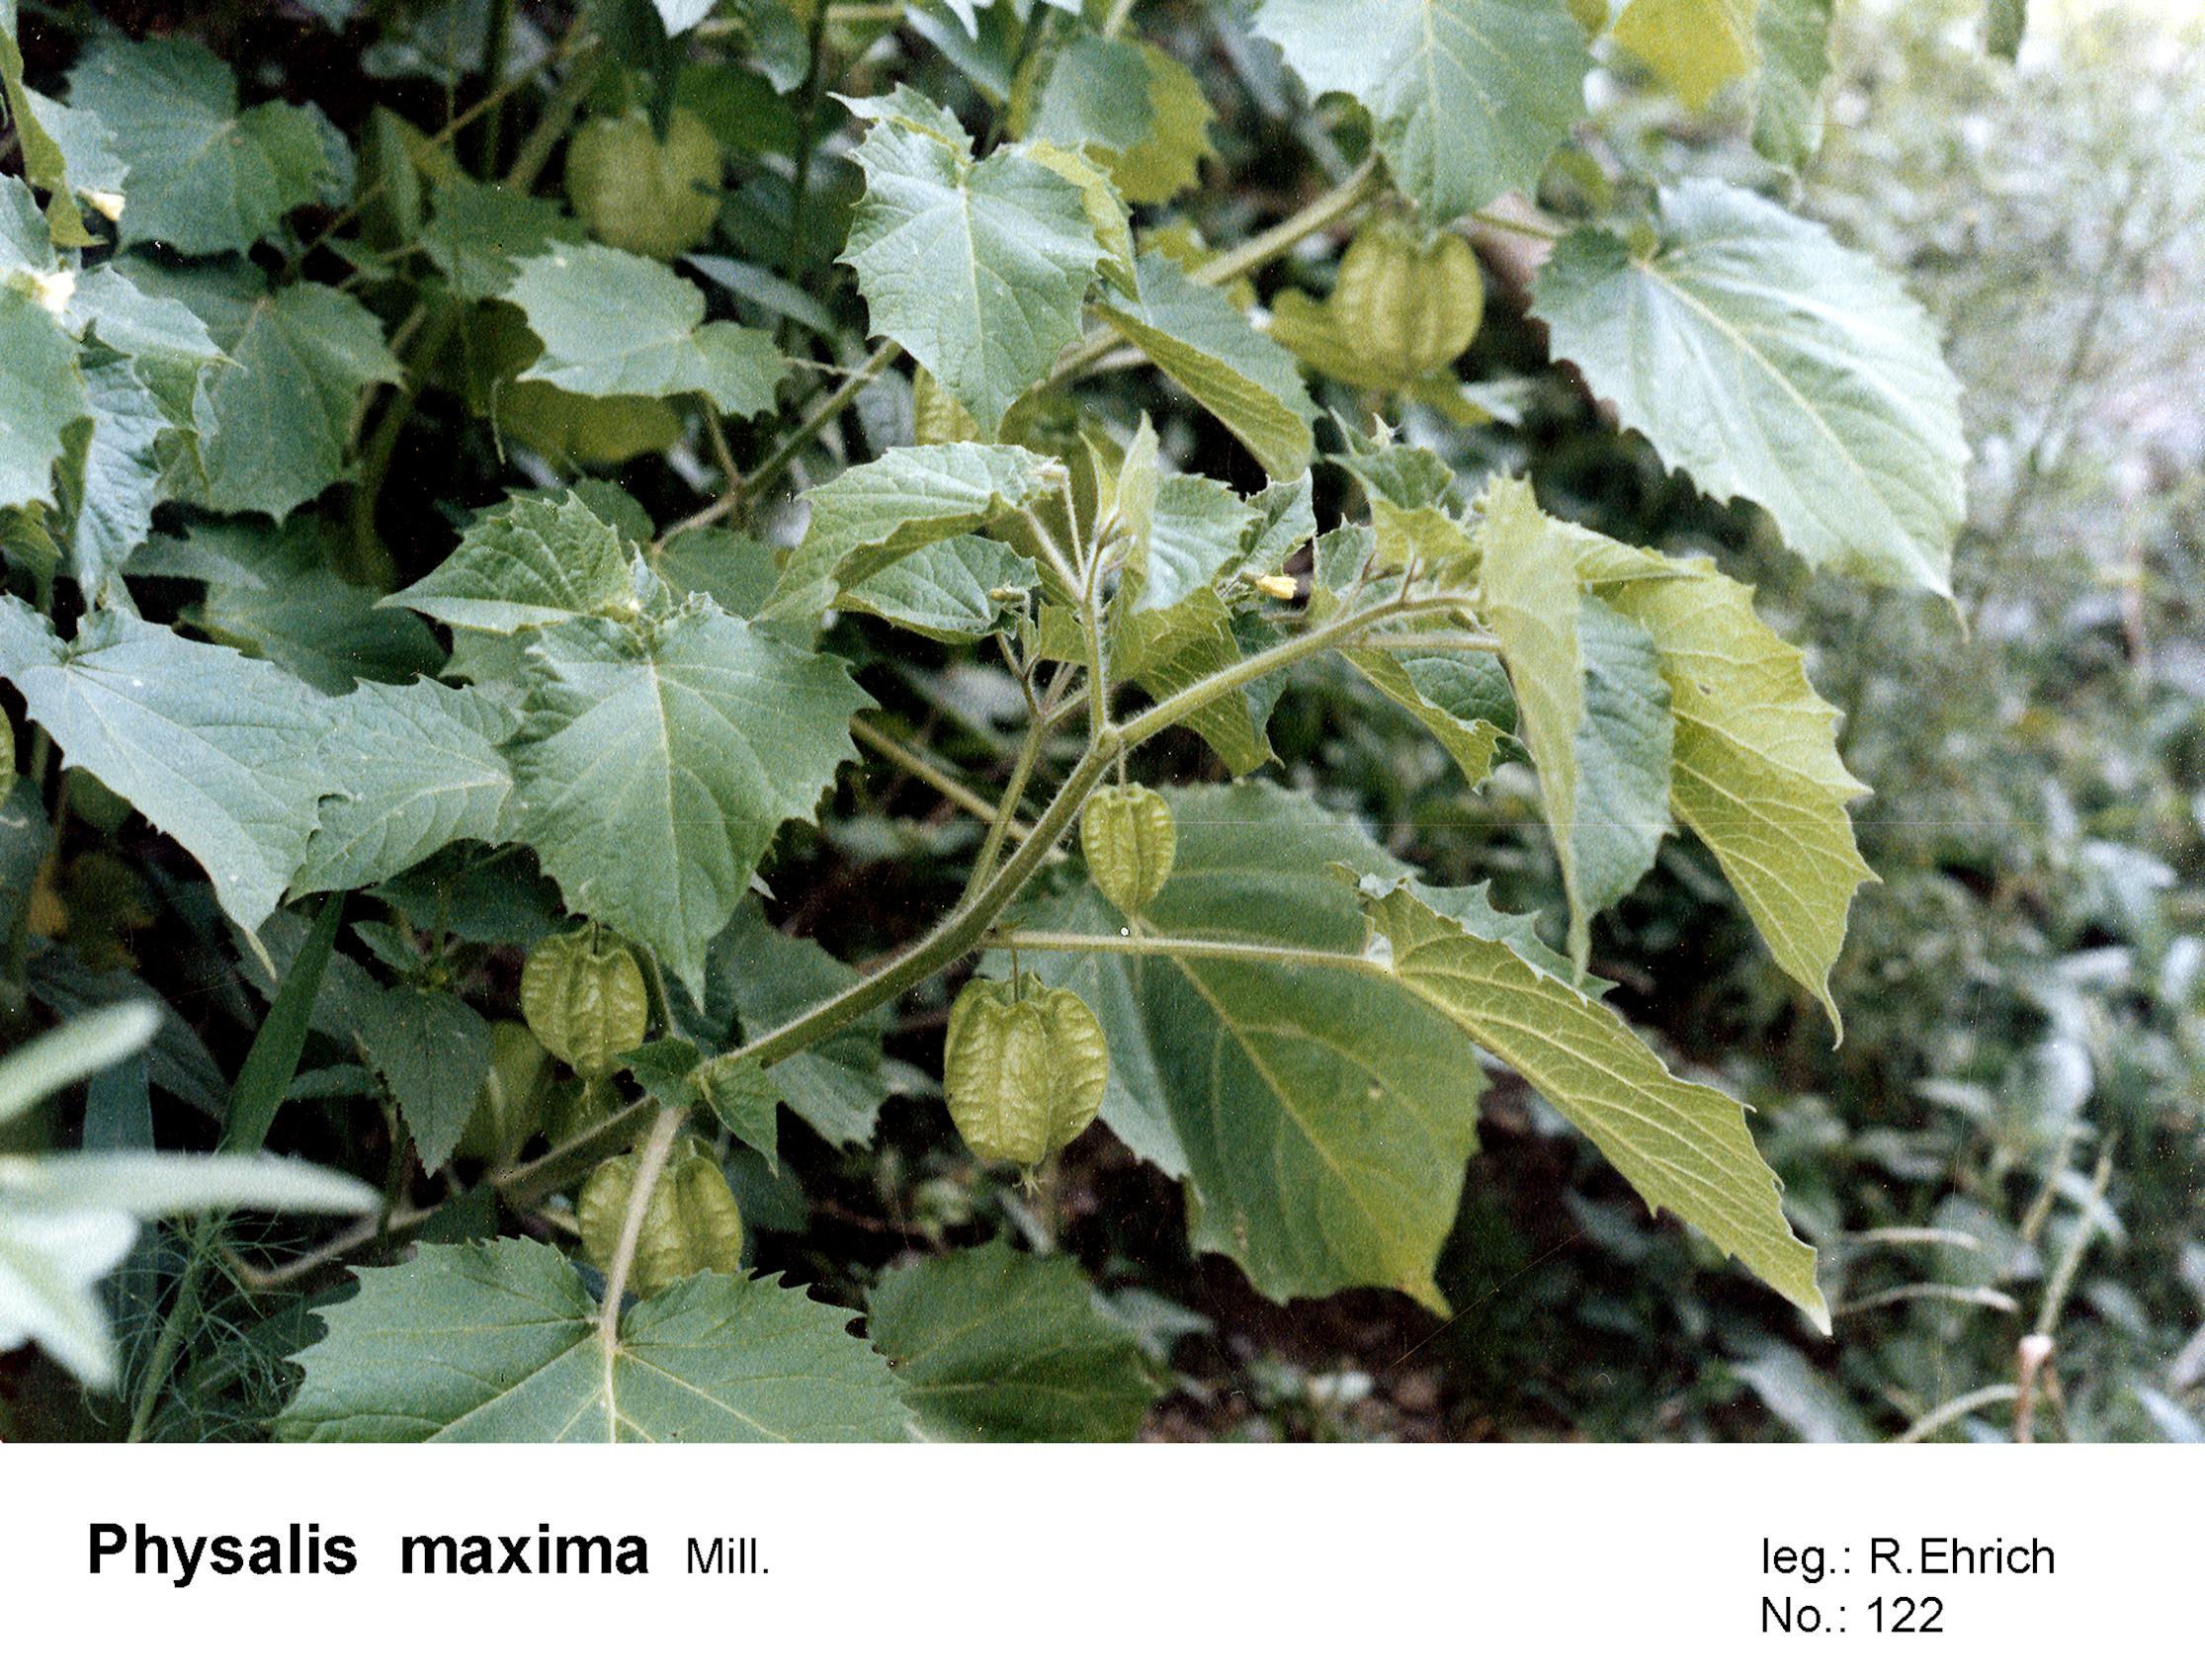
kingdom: Plantae
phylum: Tracheophyta
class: Magnoliopsida
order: Solanales
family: Solanaceae
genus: Physalis
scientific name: Physalis pruinosa
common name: Strawberry tomato
